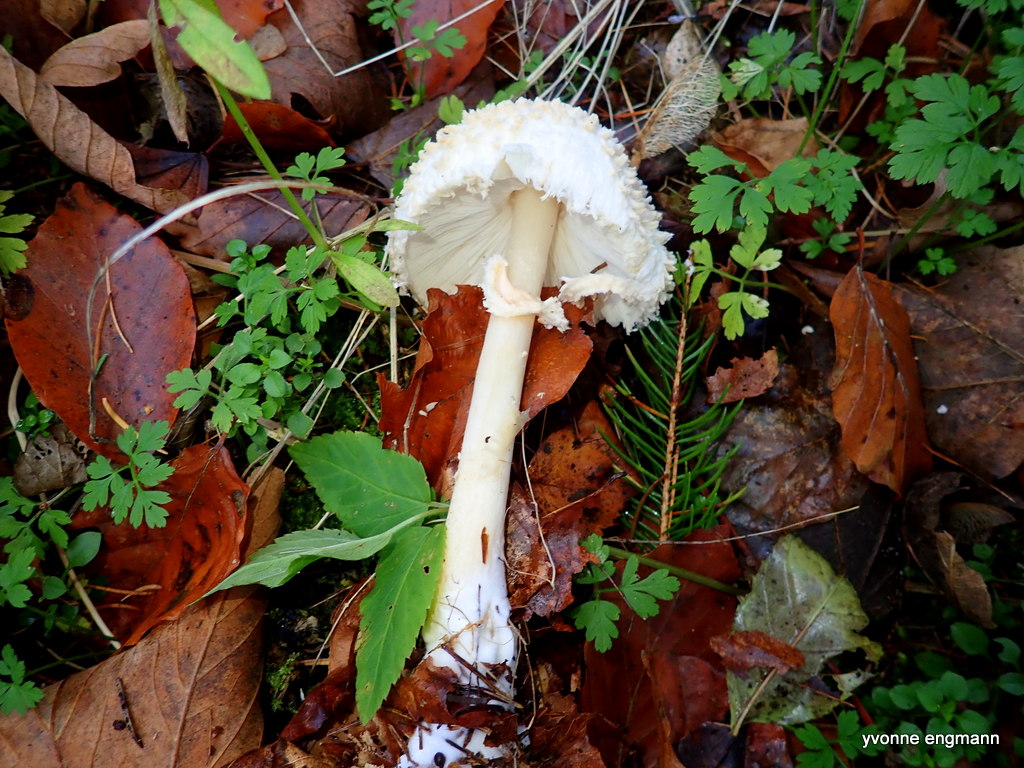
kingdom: Fungi
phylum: Basidiomycota
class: Agaricomycetes
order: Agaricales
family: Agaricaceae
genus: Leucoagaricus
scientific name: Leucoagaricus nympharum
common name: gran-silkehat
